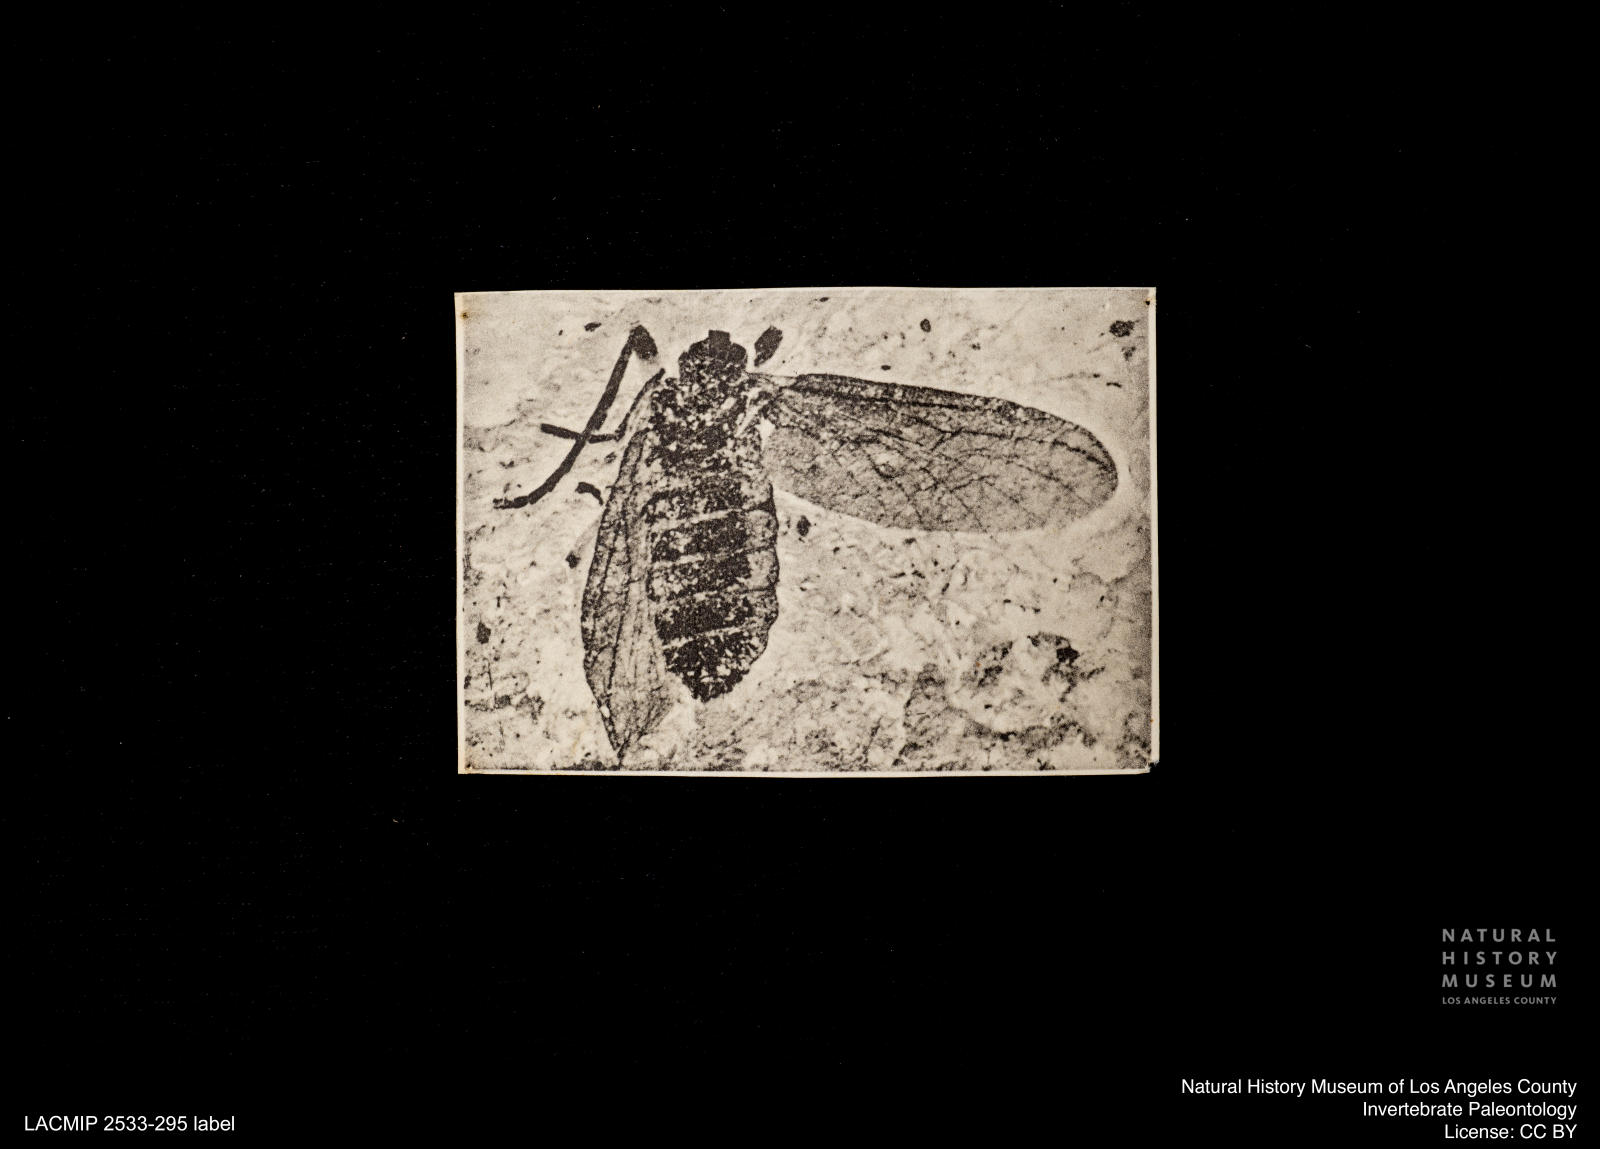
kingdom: Animalia
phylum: Arthropoda
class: Insecta
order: Diptera
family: Bibionidae
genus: Plecia
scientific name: Plecia stygia
